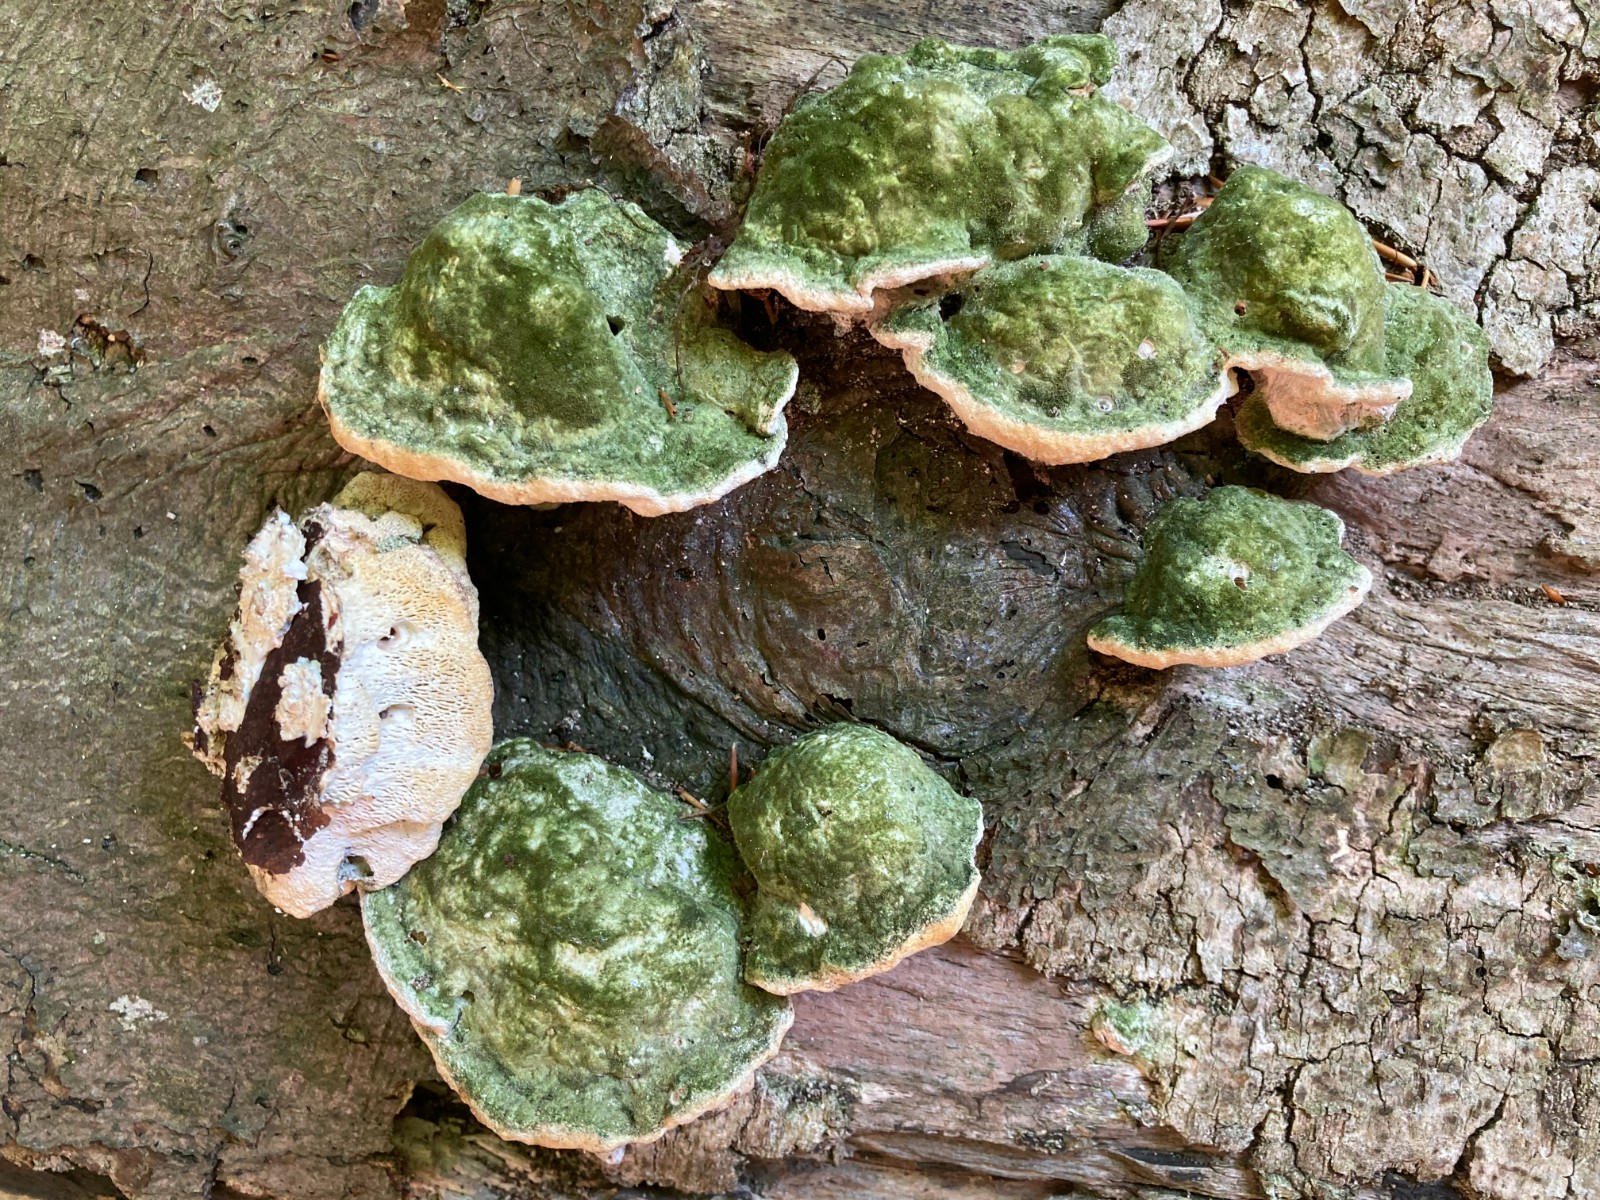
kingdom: Fungi
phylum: Basidiomycota
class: Agaricomycetes
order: Polyporales
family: Polyporaceae
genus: Trametes
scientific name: Trametes gibbosa
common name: puklet læderporesvamp
